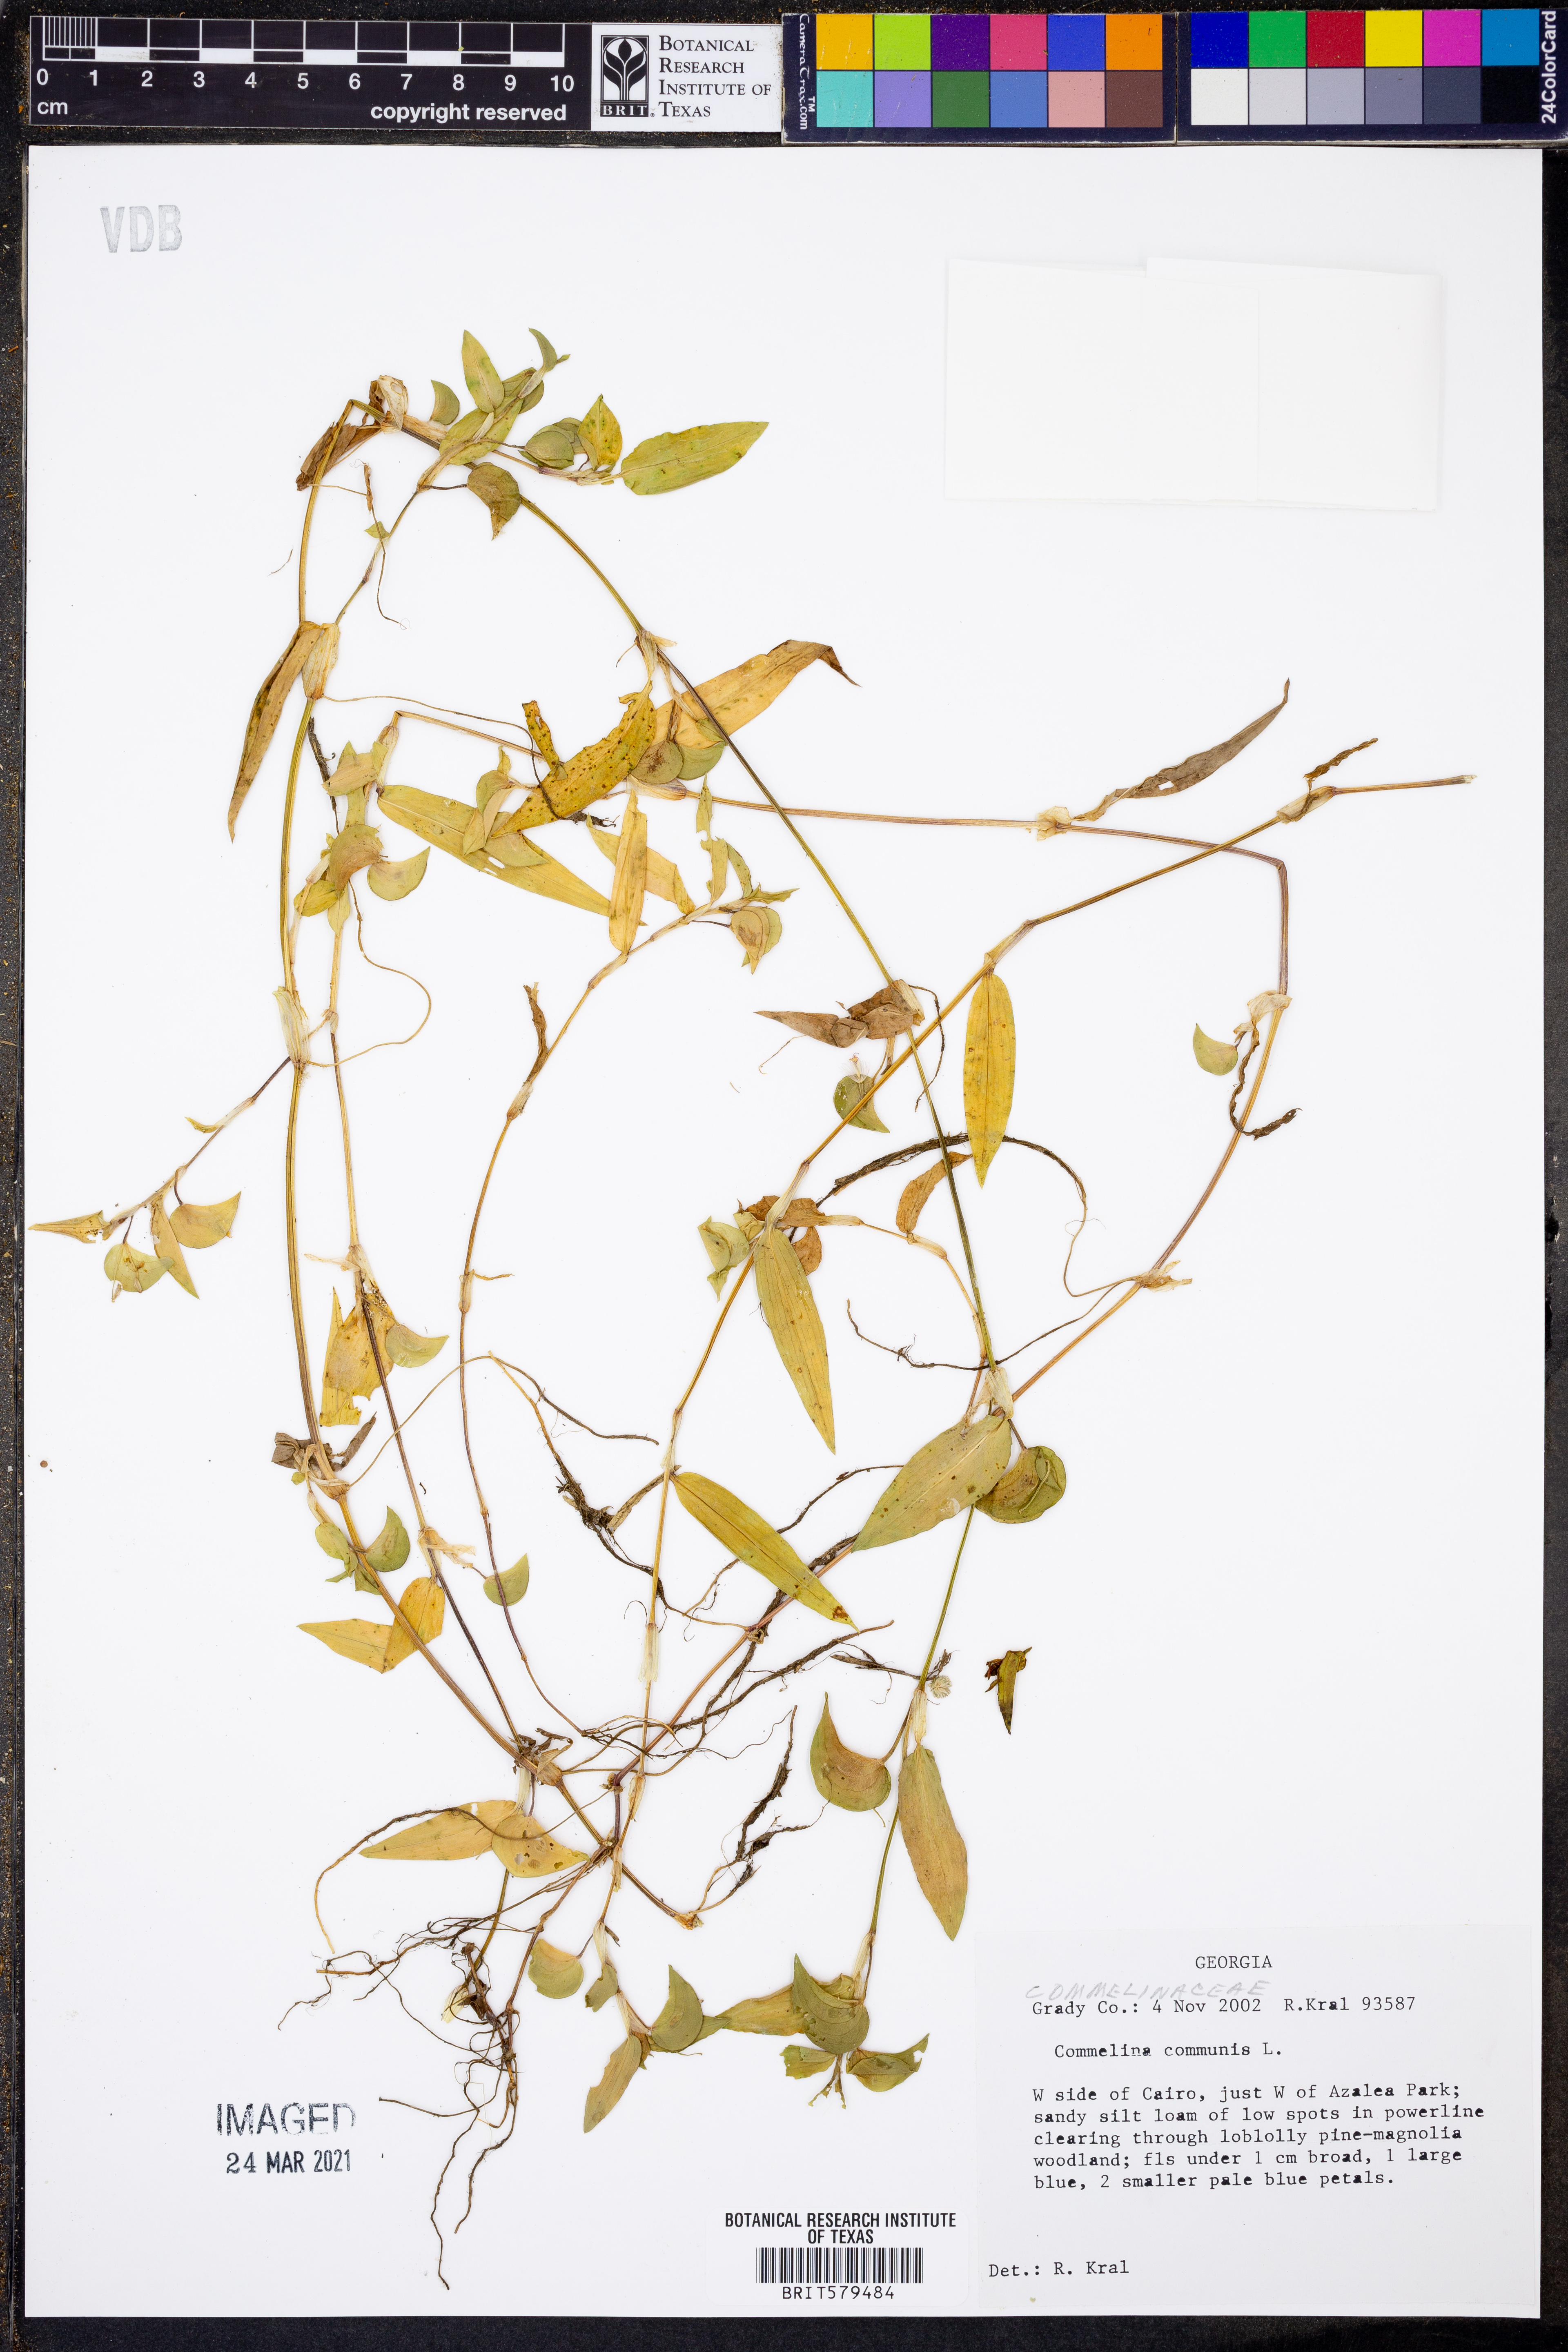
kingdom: Plantae
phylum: Tracheophyta
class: Liliopsida
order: Commelinales
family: Commelinaceae
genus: Commelina
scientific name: Commelina communis
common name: Asiatic dayflower
